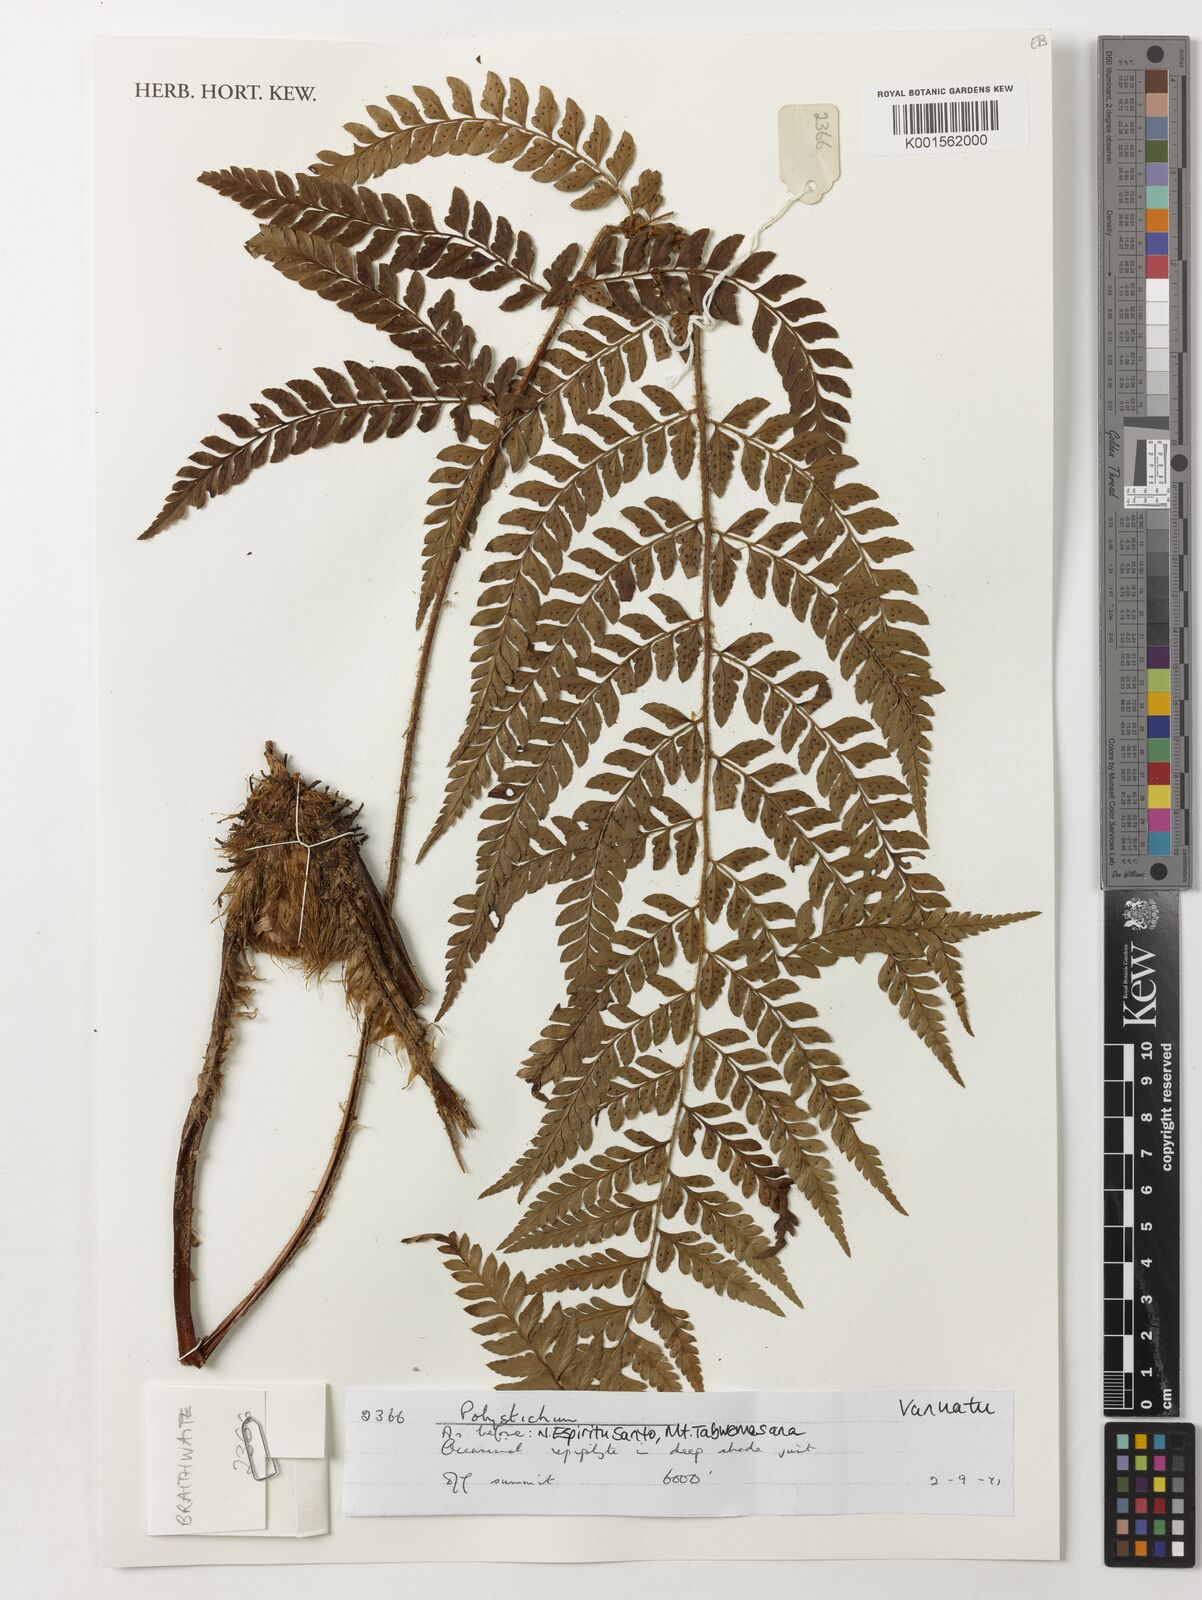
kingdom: Plantae
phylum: Tracheophyta
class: Polypodiopsida
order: Polypodiales
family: Dryopteridaceae
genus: Polystichum
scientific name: Polystichum
